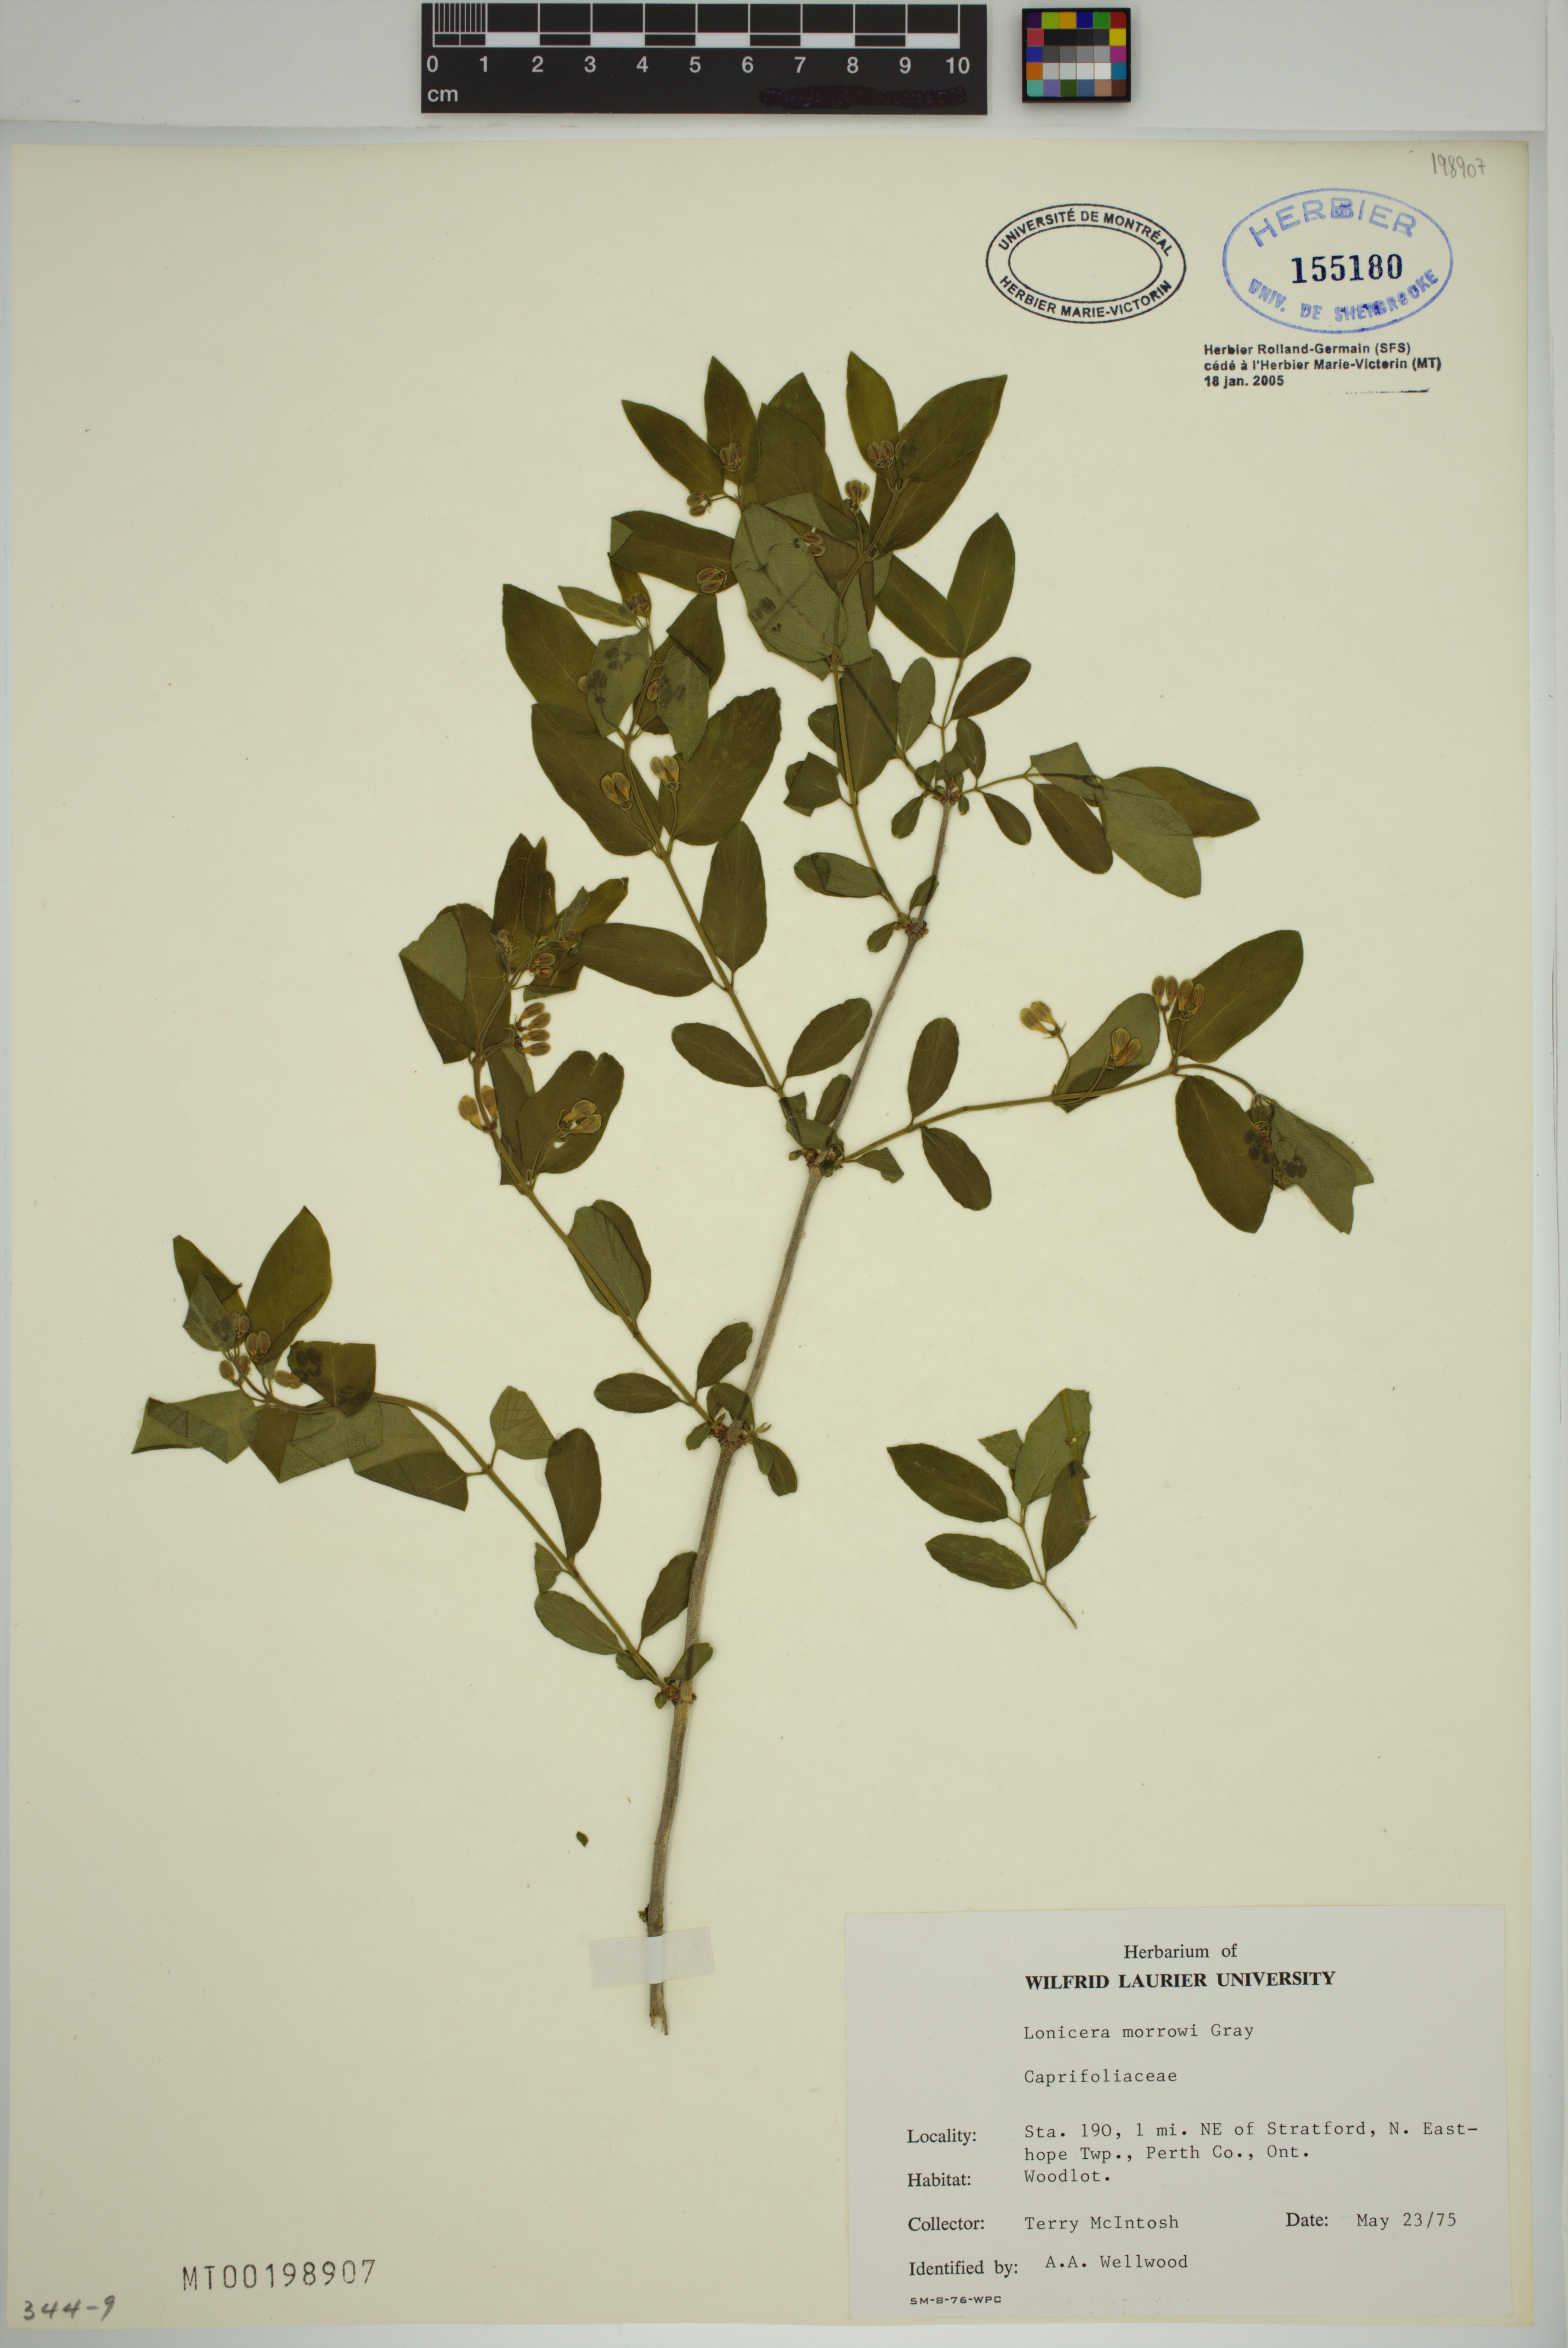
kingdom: Plantae
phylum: Tracheophyta
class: Magnoliopsida
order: Dipsacales
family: Caprifoliaceae
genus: Lonicera
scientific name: Lonicera tatarica
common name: Tatarian honeysuckle
